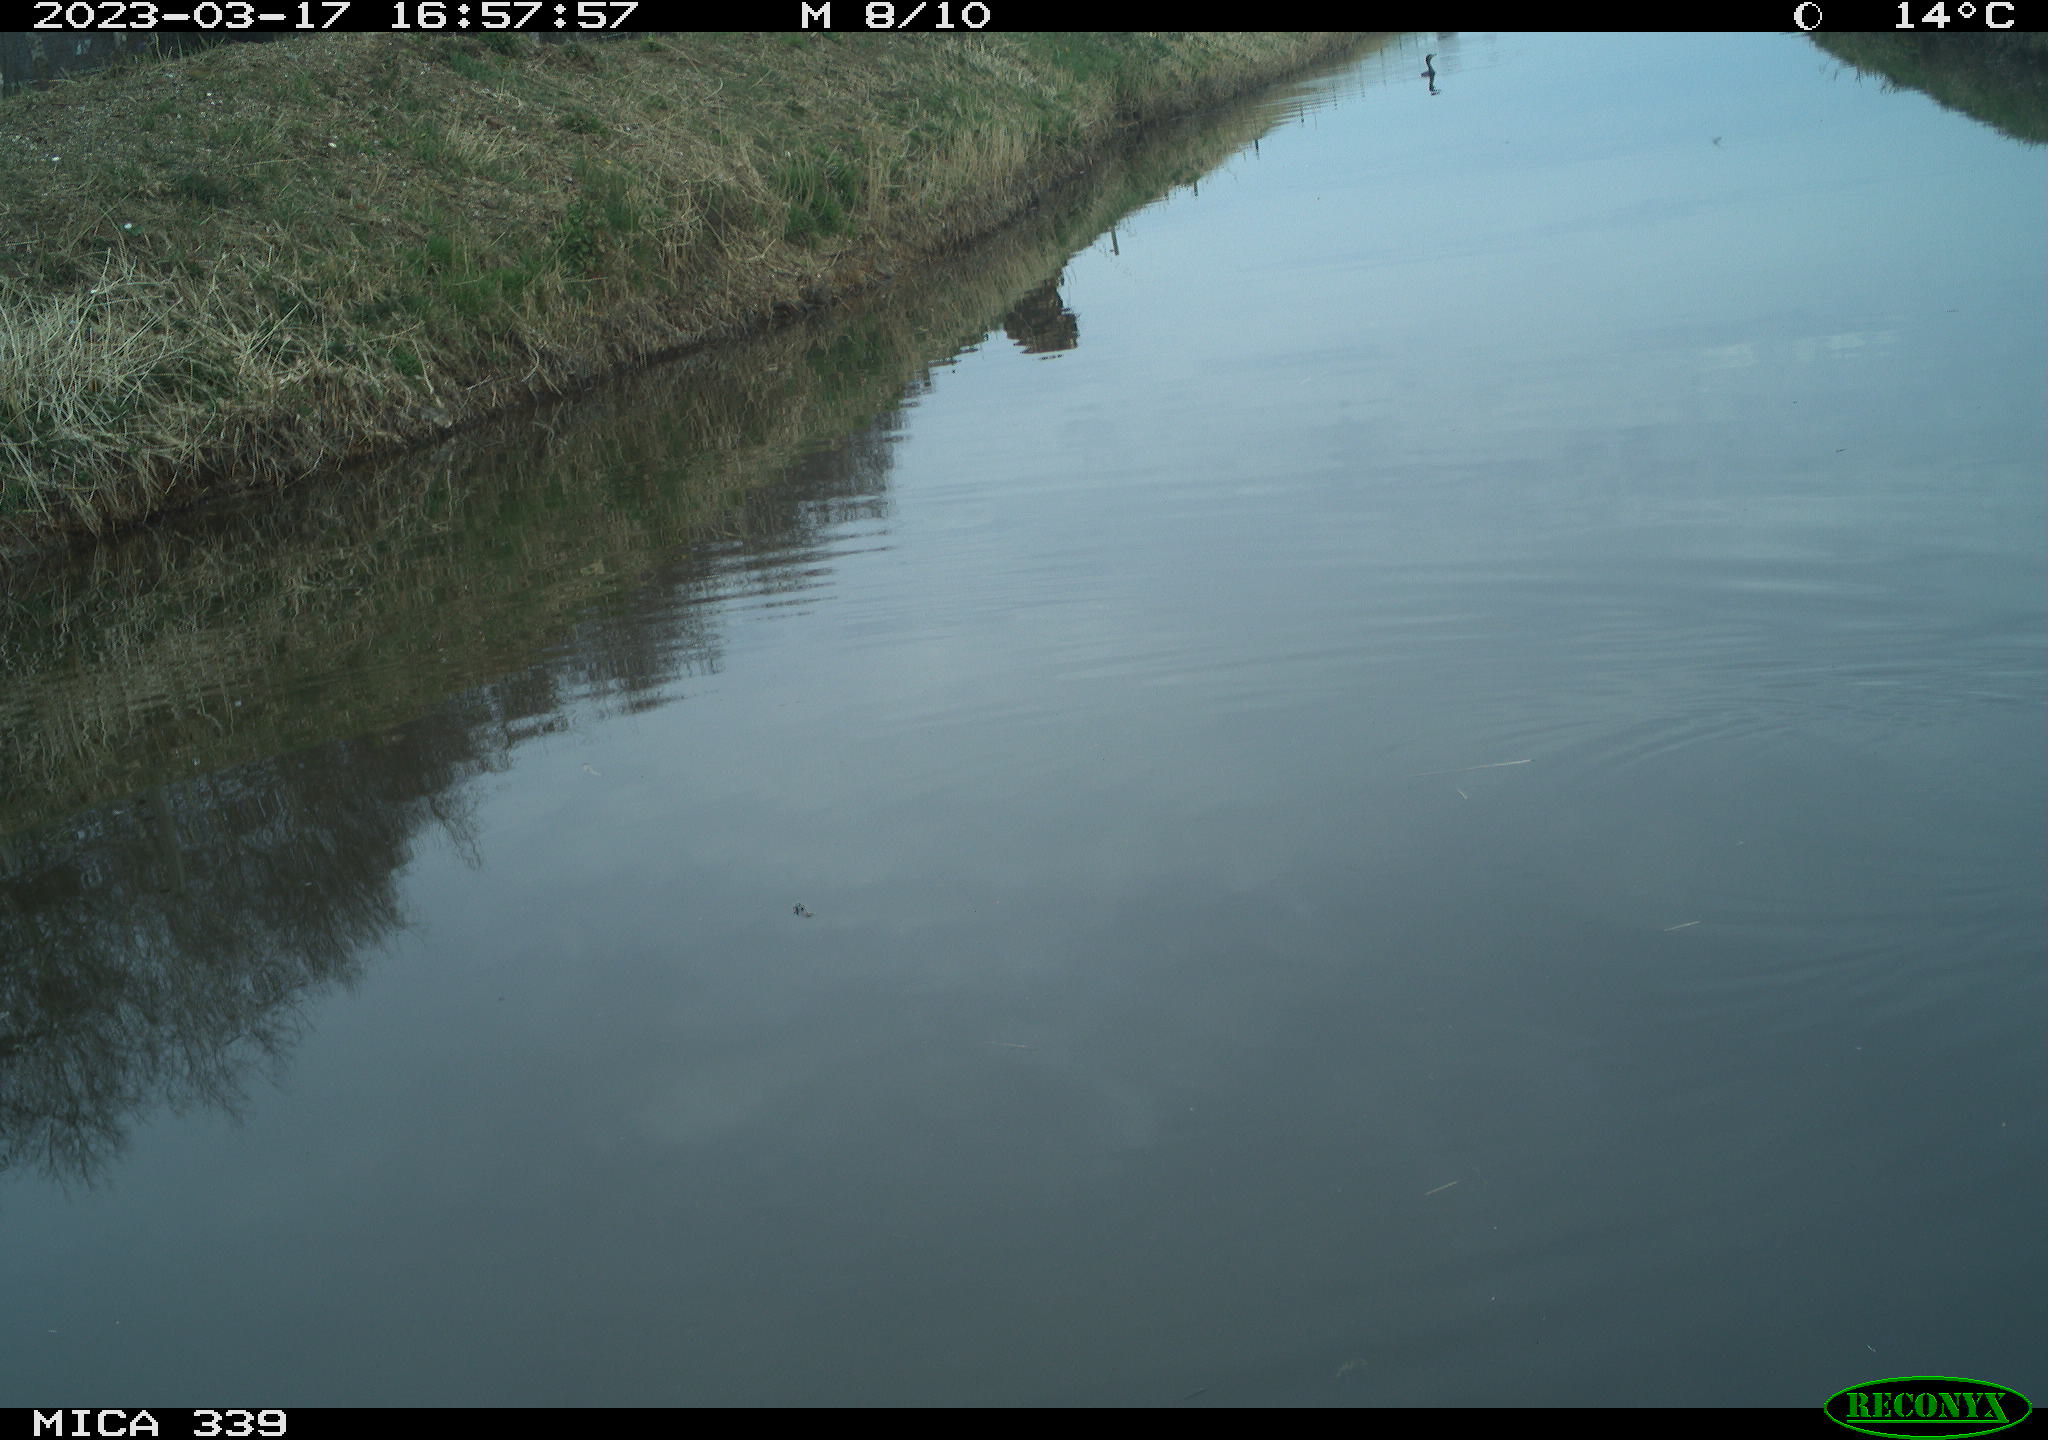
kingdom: Animalia
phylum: Chordata
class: Aves
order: Gruiformes
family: Rallidae
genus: Fulica
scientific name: Fulica atra
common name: Eurasian coot
